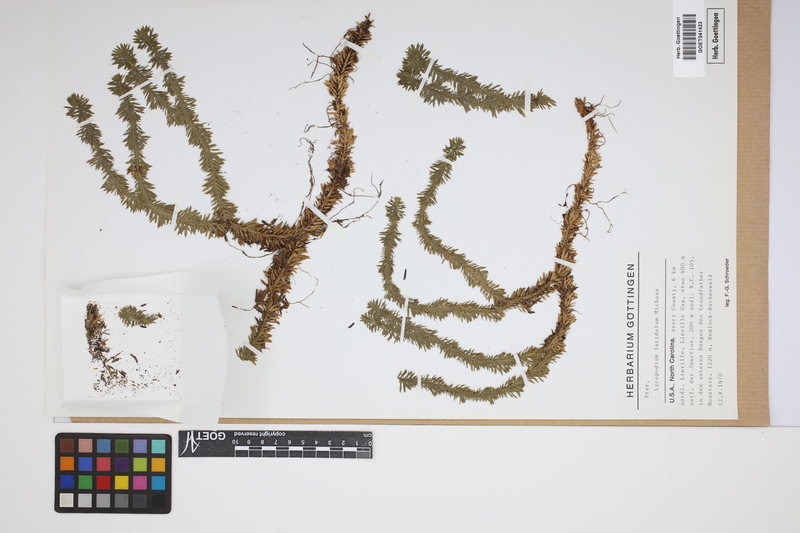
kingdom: Plantae
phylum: Tracheophyta
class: Lycopodiopsida
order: Lycopodiales
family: Lycopodiaceae
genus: Diphasiastrum
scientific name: Diphasiastrum digitatum
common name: Southern running-pine
